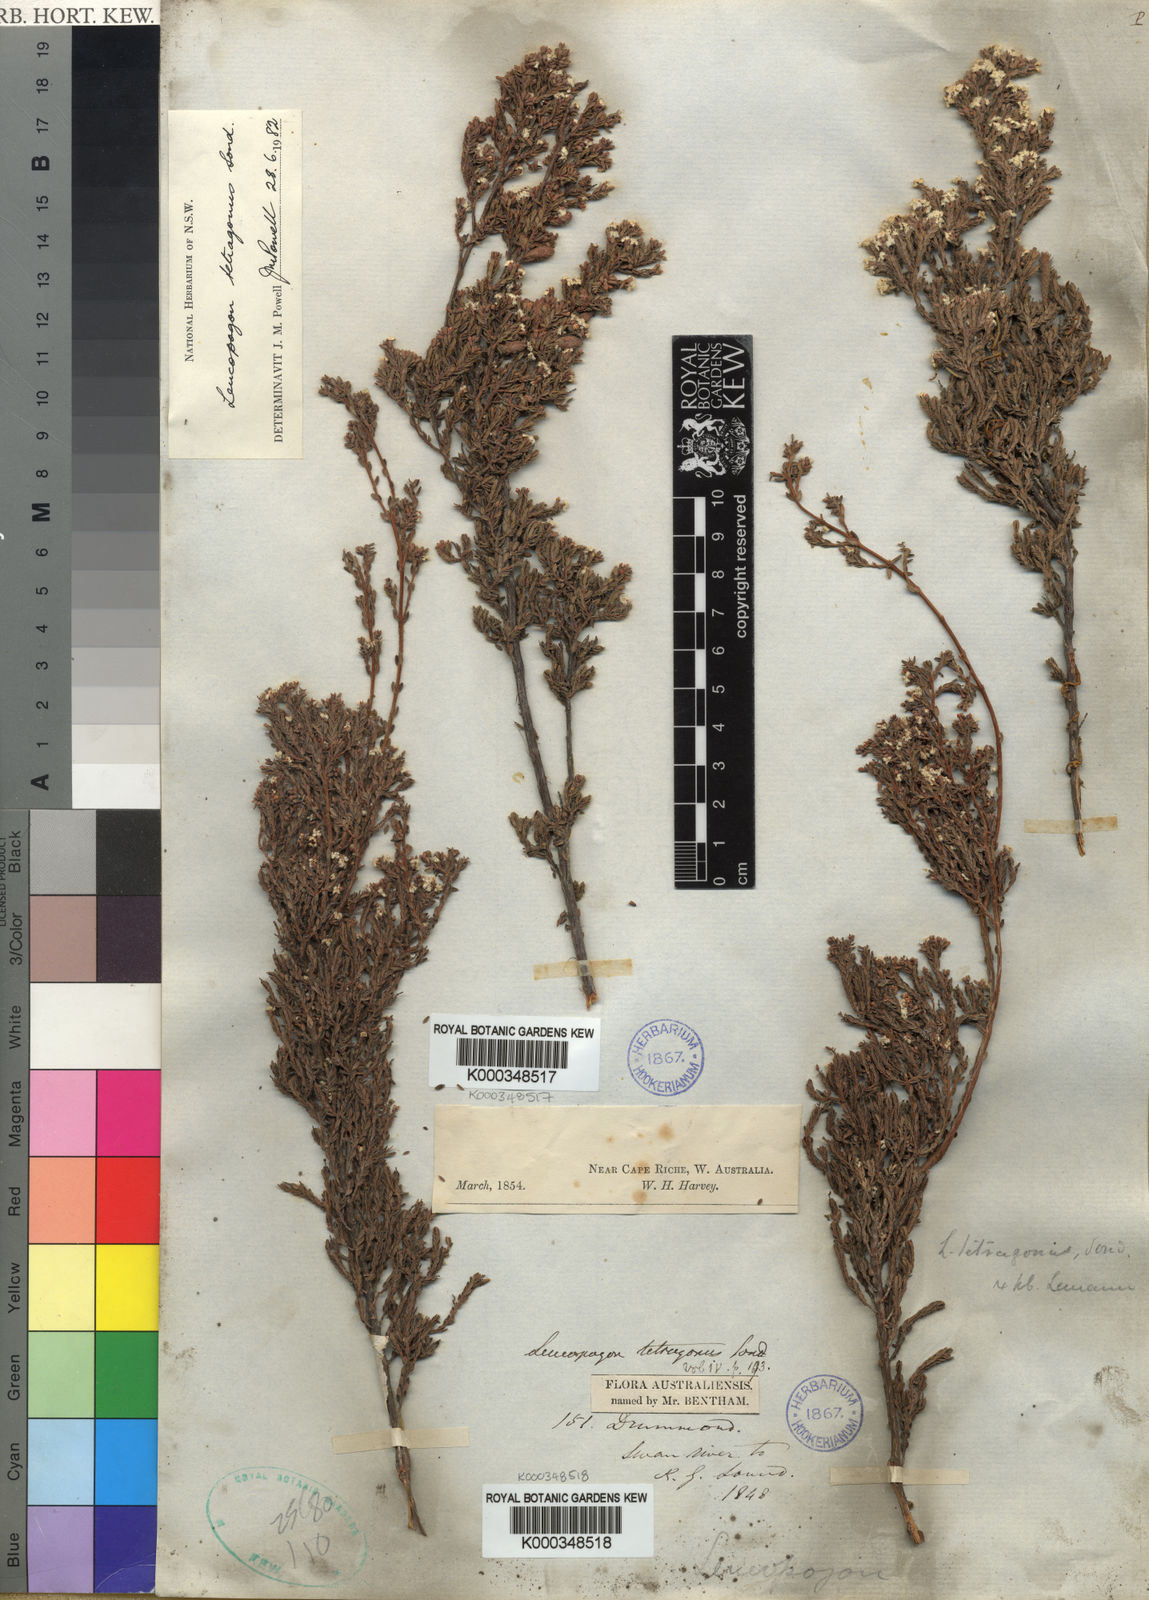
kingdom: Plantae
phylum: Tracheophyta
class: Magnoliopsida
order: Ericales
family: Ericaceae
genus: Leucopogon
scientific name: Leucopogon tetragonus
